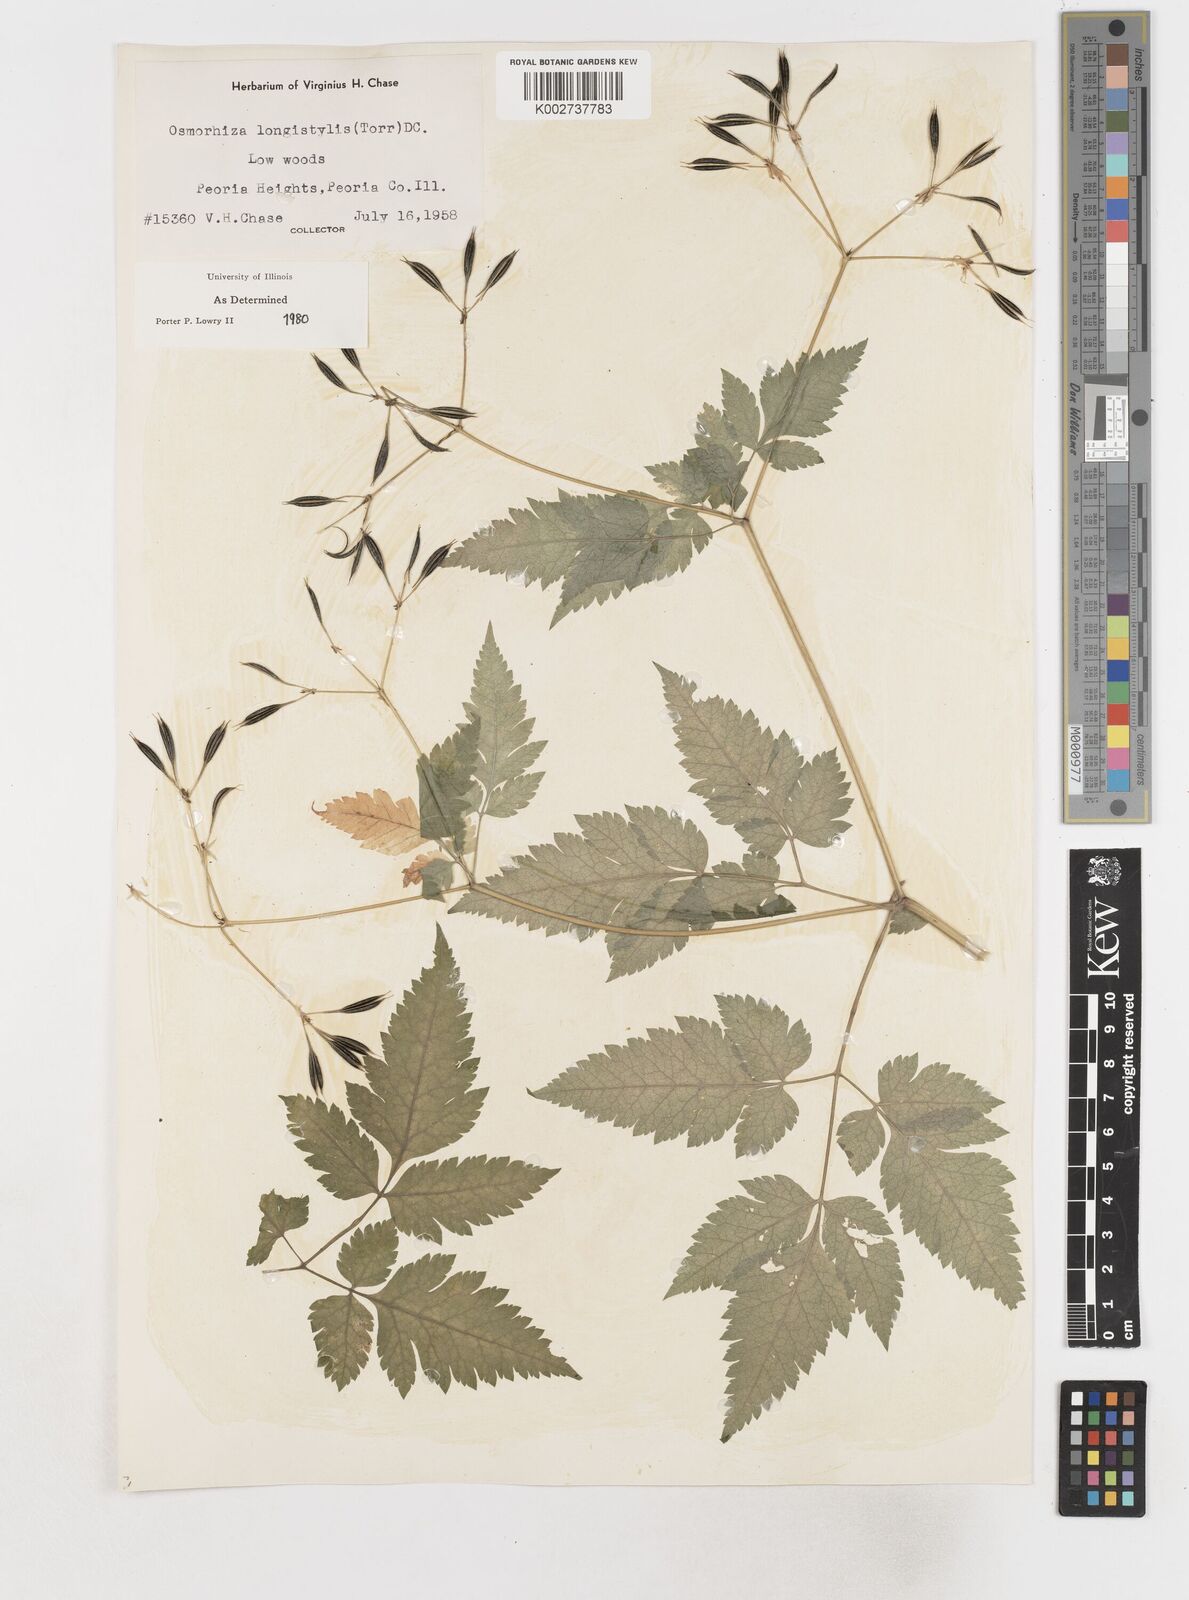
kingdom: Plantae
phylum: Tracheophyta
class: Magnoliopsida
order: Apiales
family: Apiaceae
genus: Osmorhiza
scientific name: Osmorhiza longistylis
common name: Smooth sweet cicely
